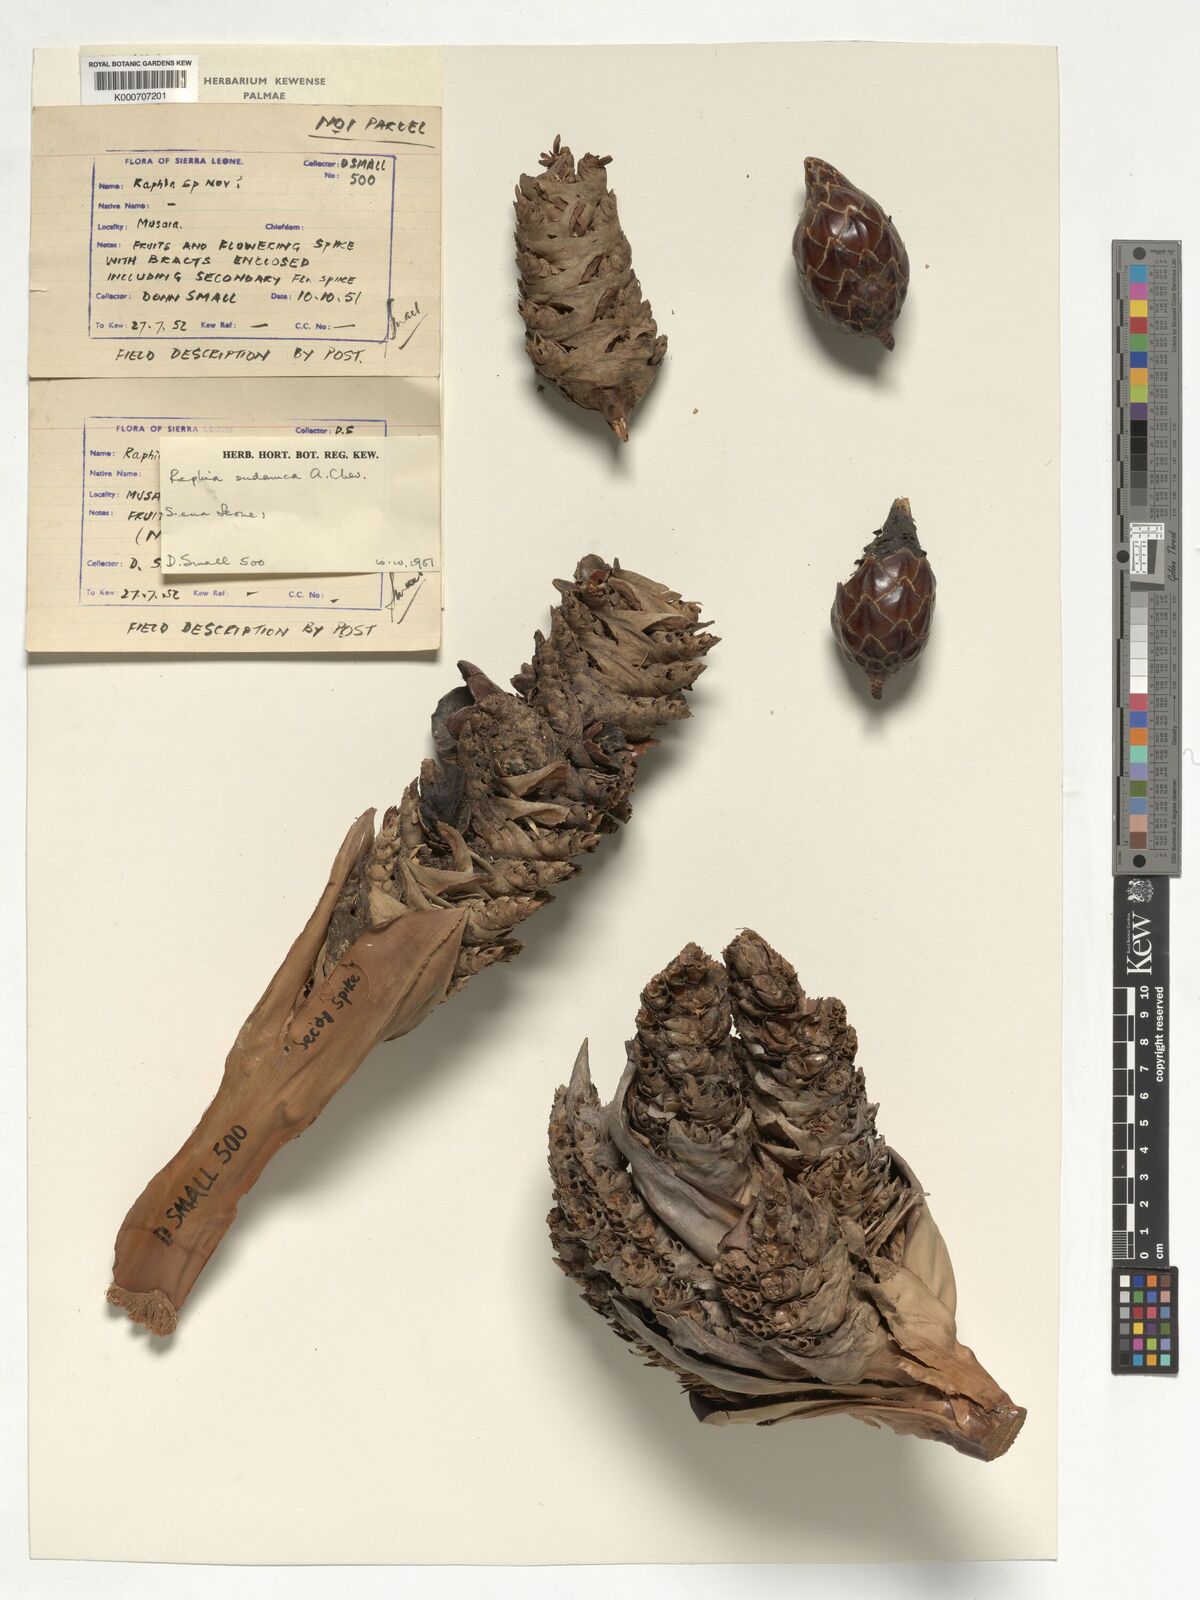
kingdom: Plantae
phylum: Tracheophyta
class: Liliopsida
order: Arecales
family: Arecaceae
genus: Raphia
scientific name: Raphia sudanica
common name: Northern raphia
